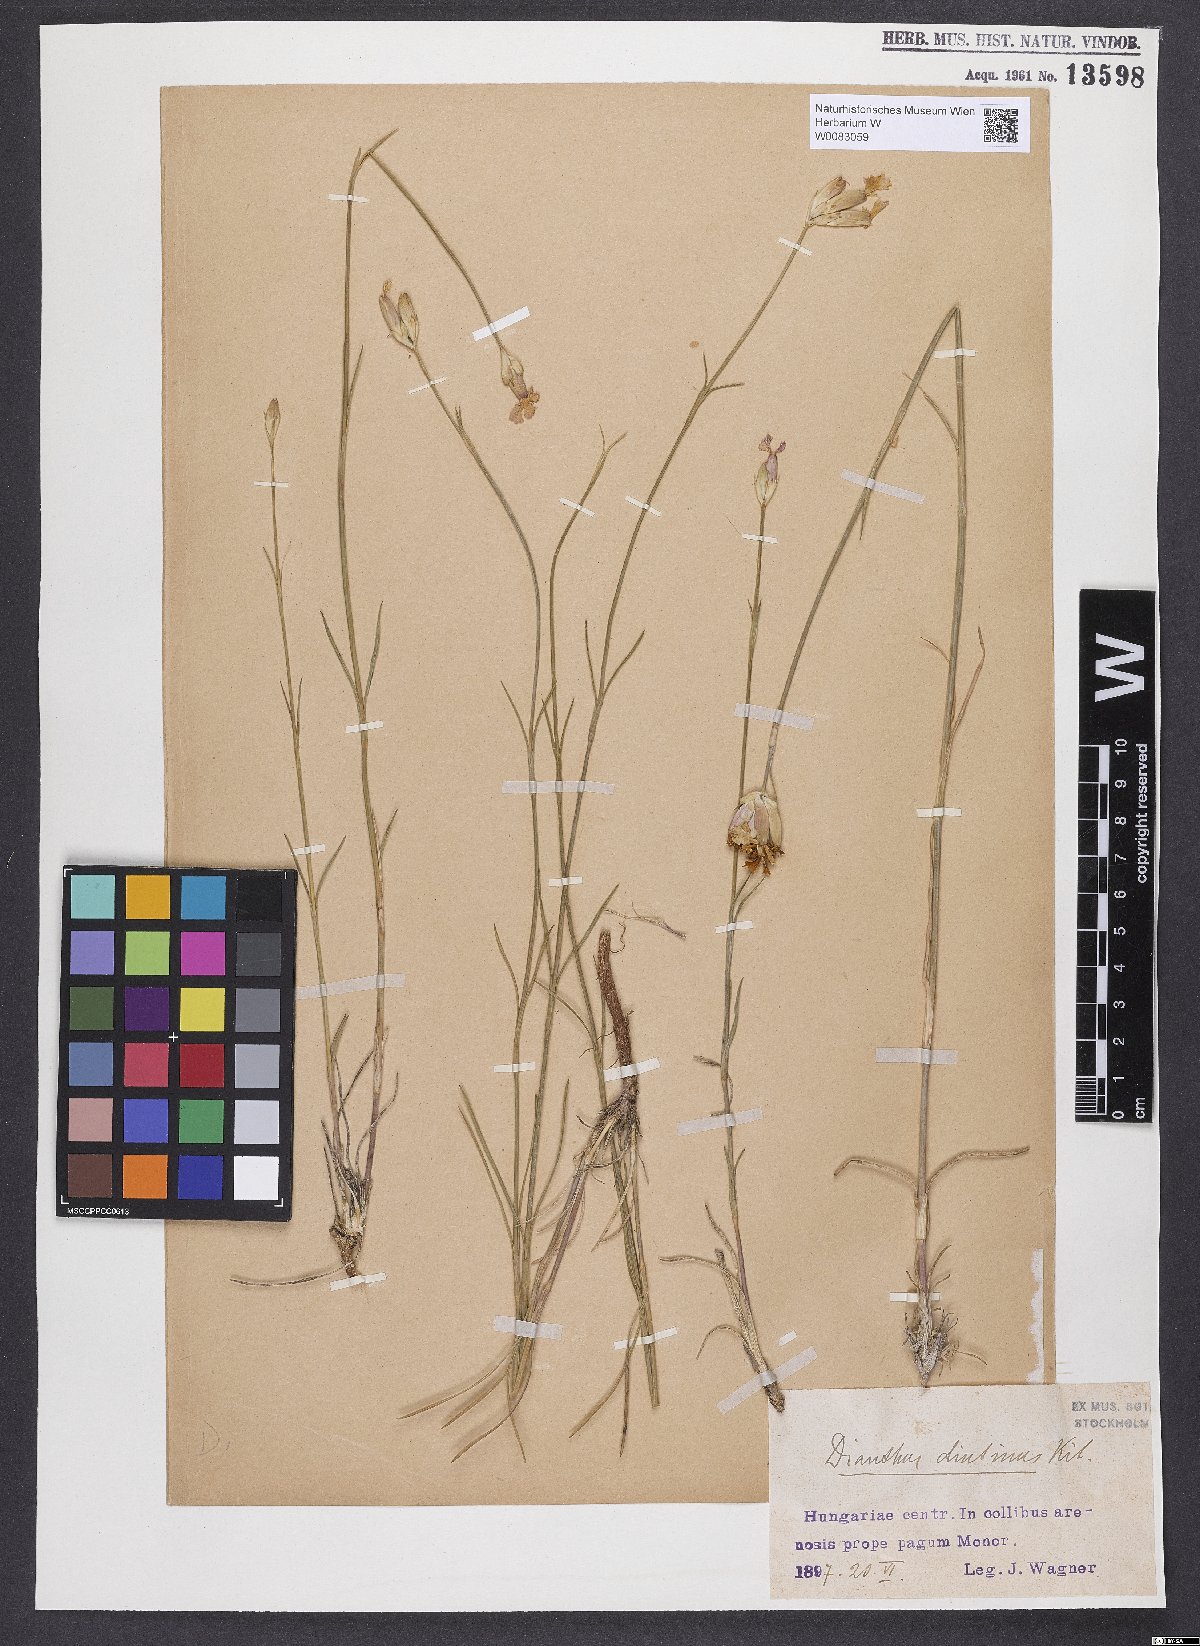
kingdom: Plantae
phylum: Tracheophyta
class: Magnoliopsida
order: Caryophyllales
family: Caryophyllaceae
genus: Dianthus
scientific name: Dianthus polymorphus
